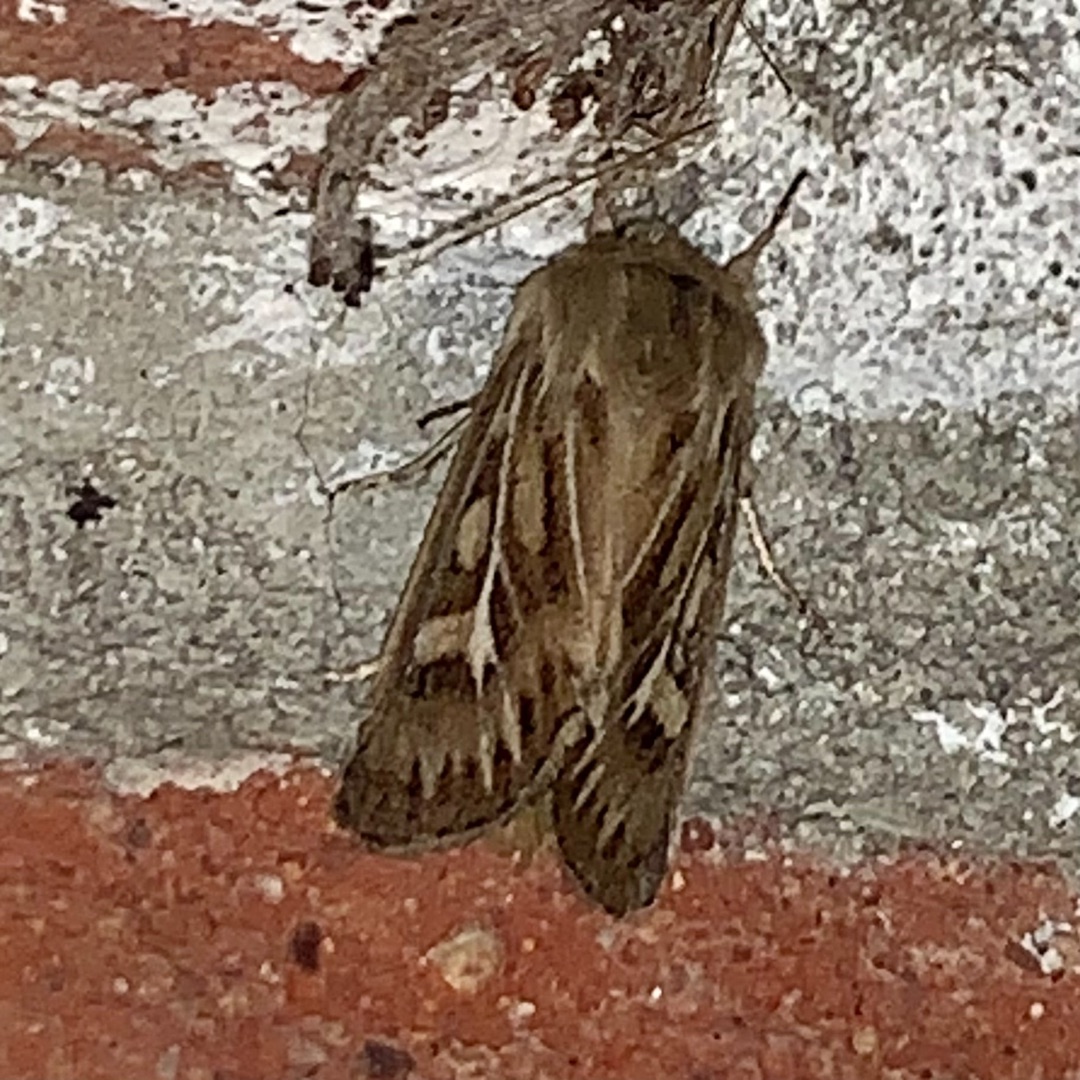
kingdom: Animalia
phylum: Arthropoda
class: Insecta
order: Lepidoptera
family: Noctuidae
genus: Cerapteryx
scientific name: Cerapteryx graminis
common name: Mosebunkeugle
